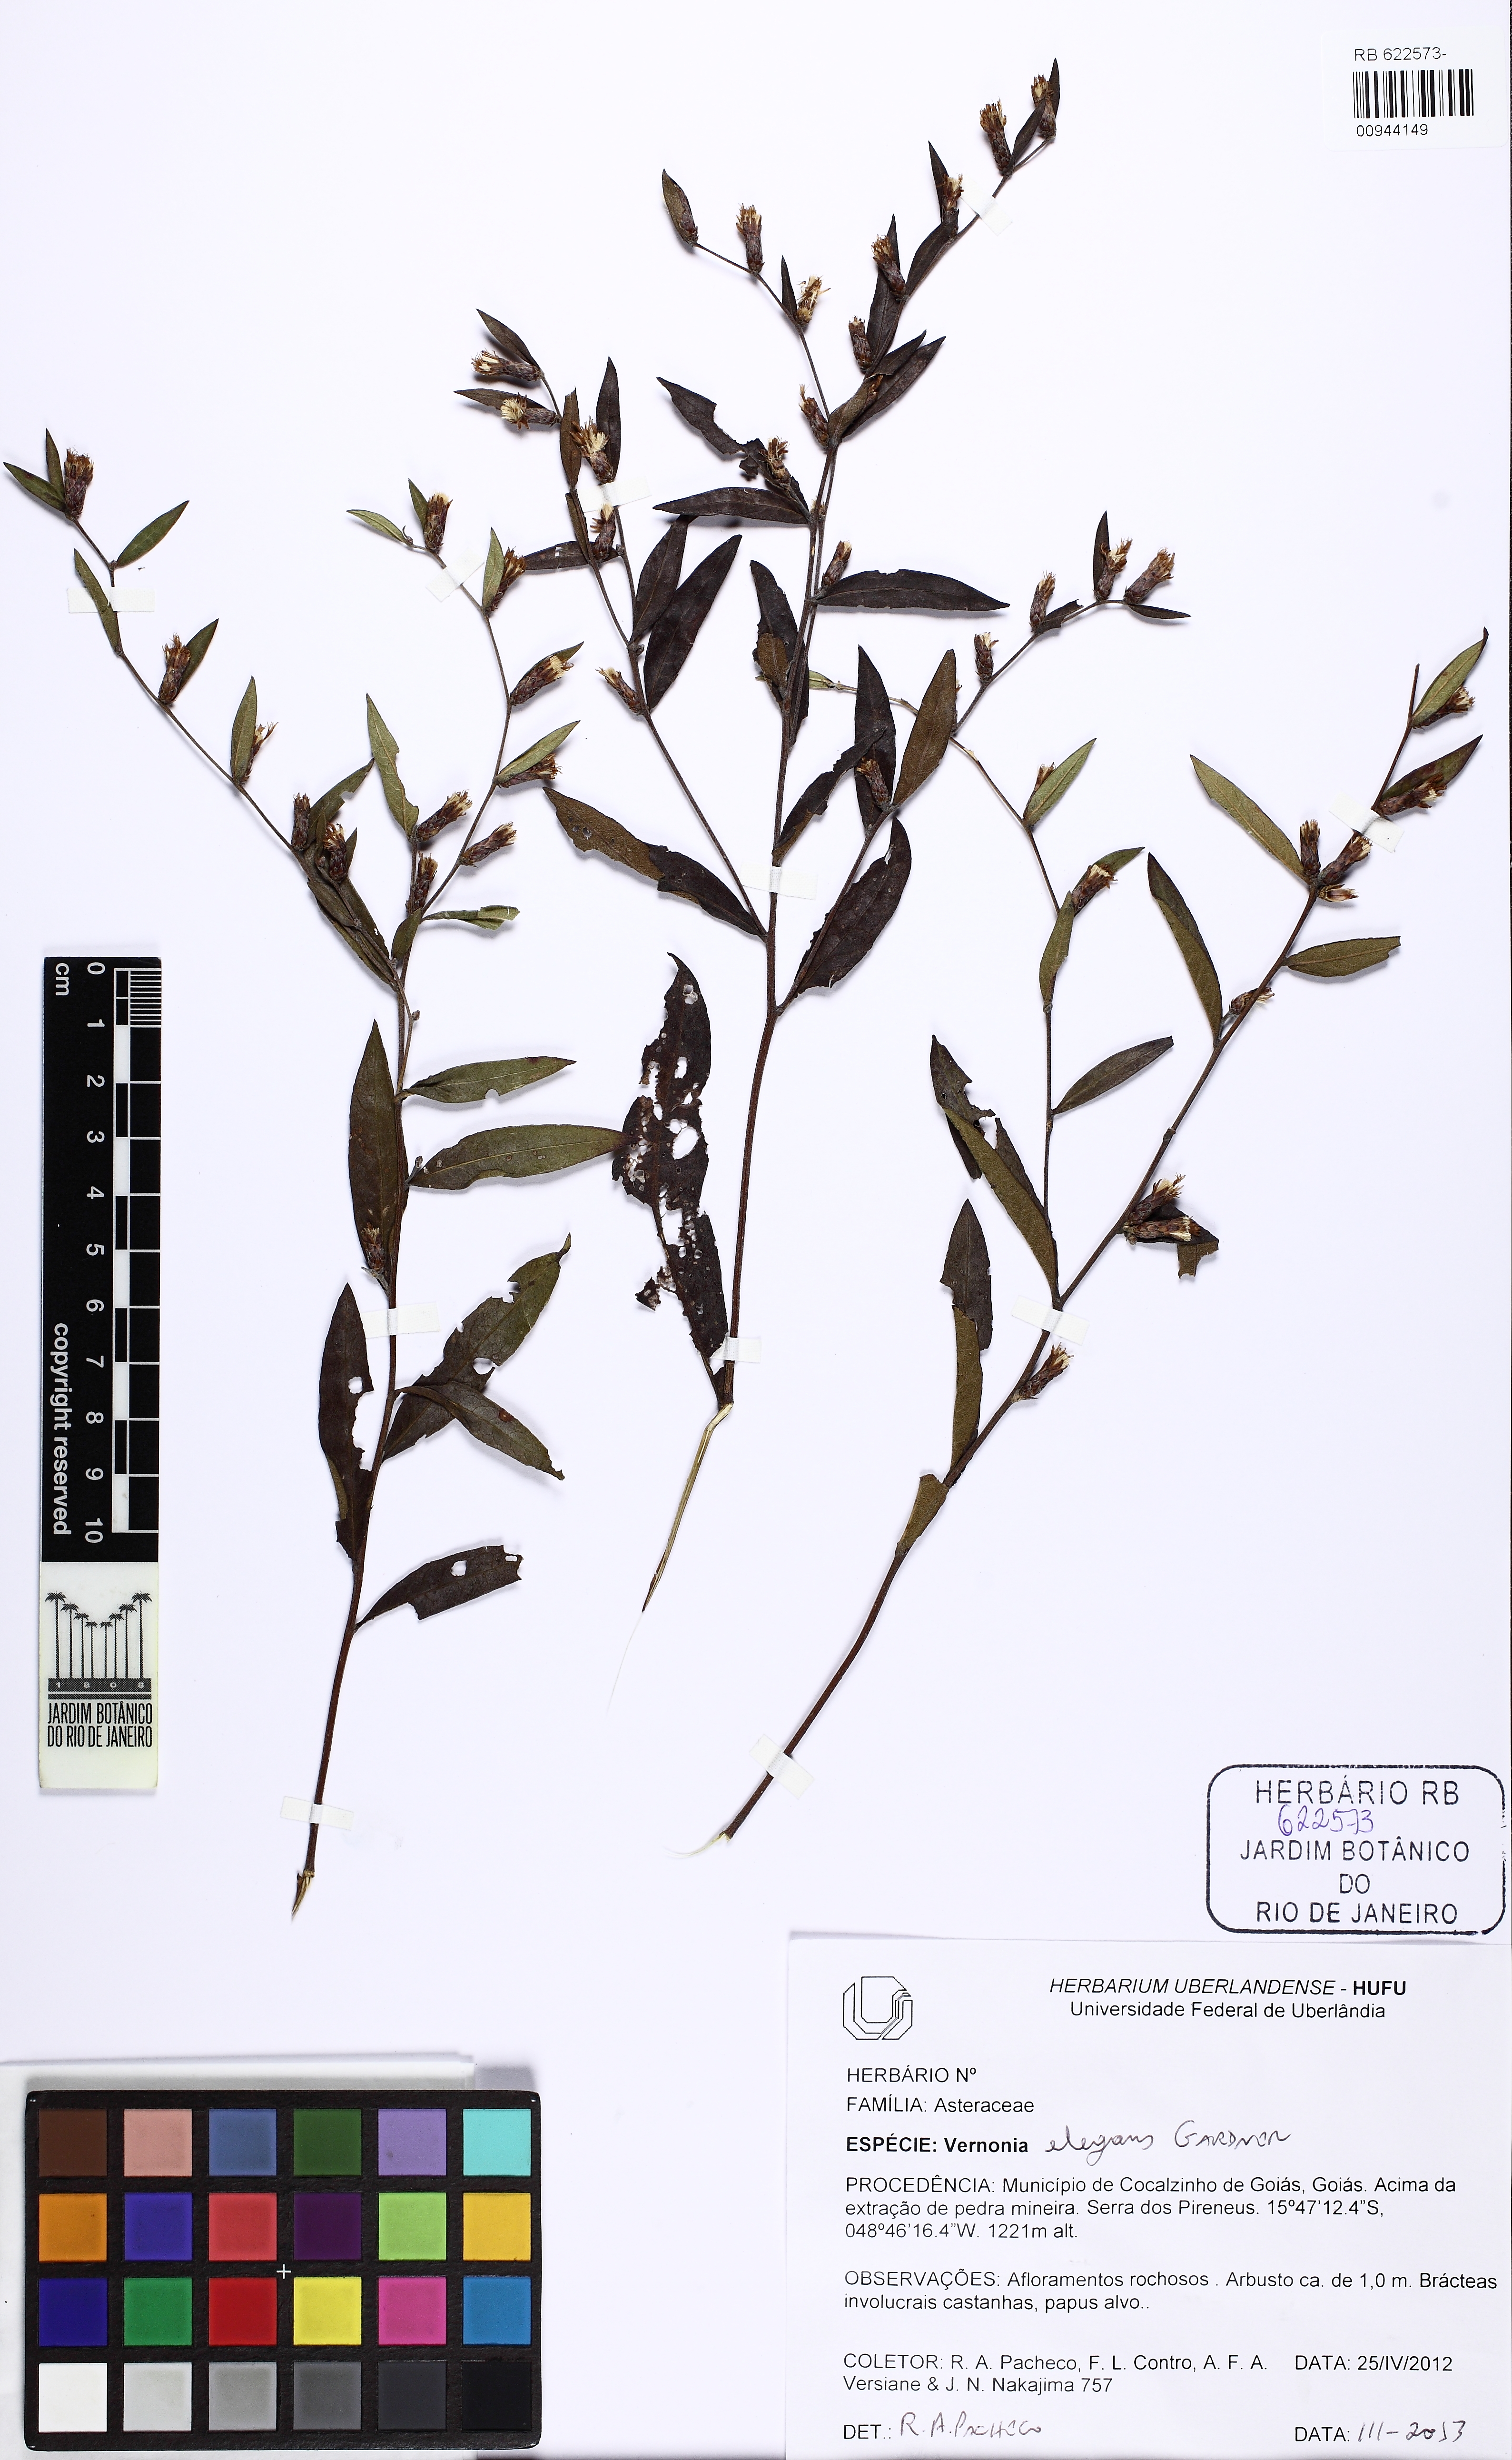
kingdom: Plantae
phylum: Tracheophyta
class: Magnoliopsida
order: Asterales
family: Asteraceae
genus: Lessingianthus
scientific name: Lessingianthus elegans
